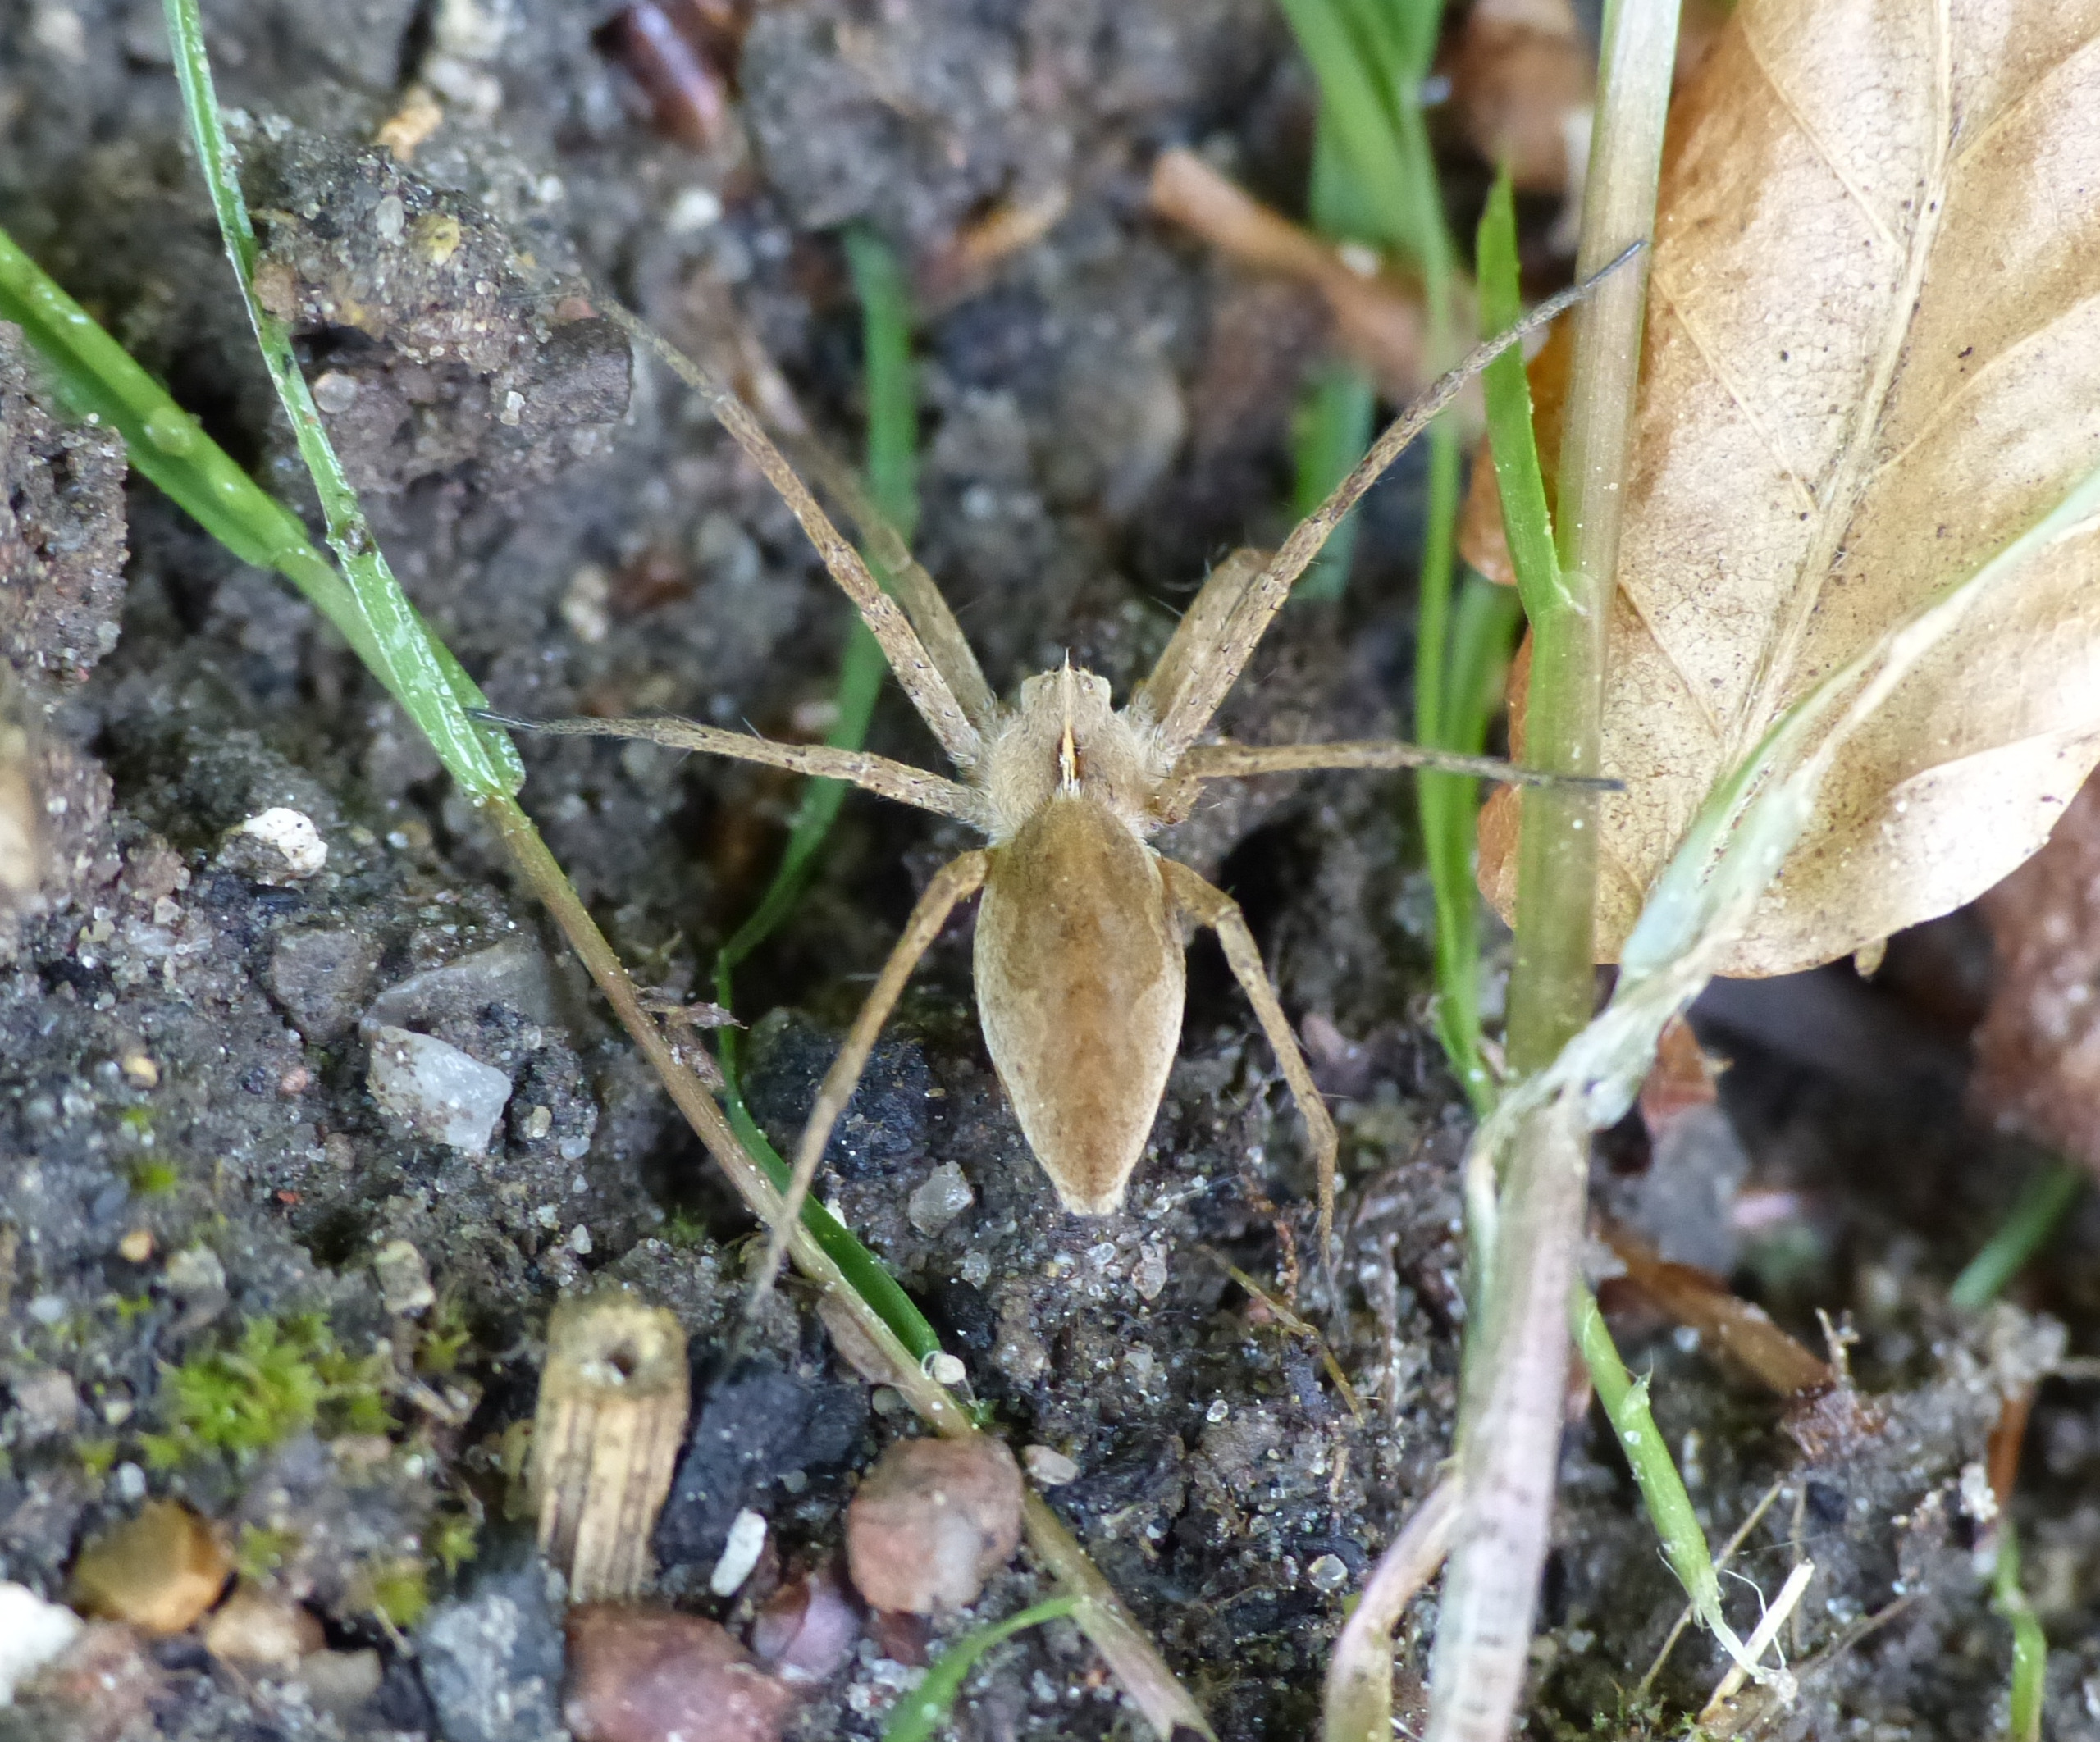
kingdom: Animalia
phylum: Arthropoda
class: Arachnida
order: Araneae
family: Pisauridae
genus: Pisaura
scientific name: Pisaura mirabilis
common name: Almindelig rovedderkop
